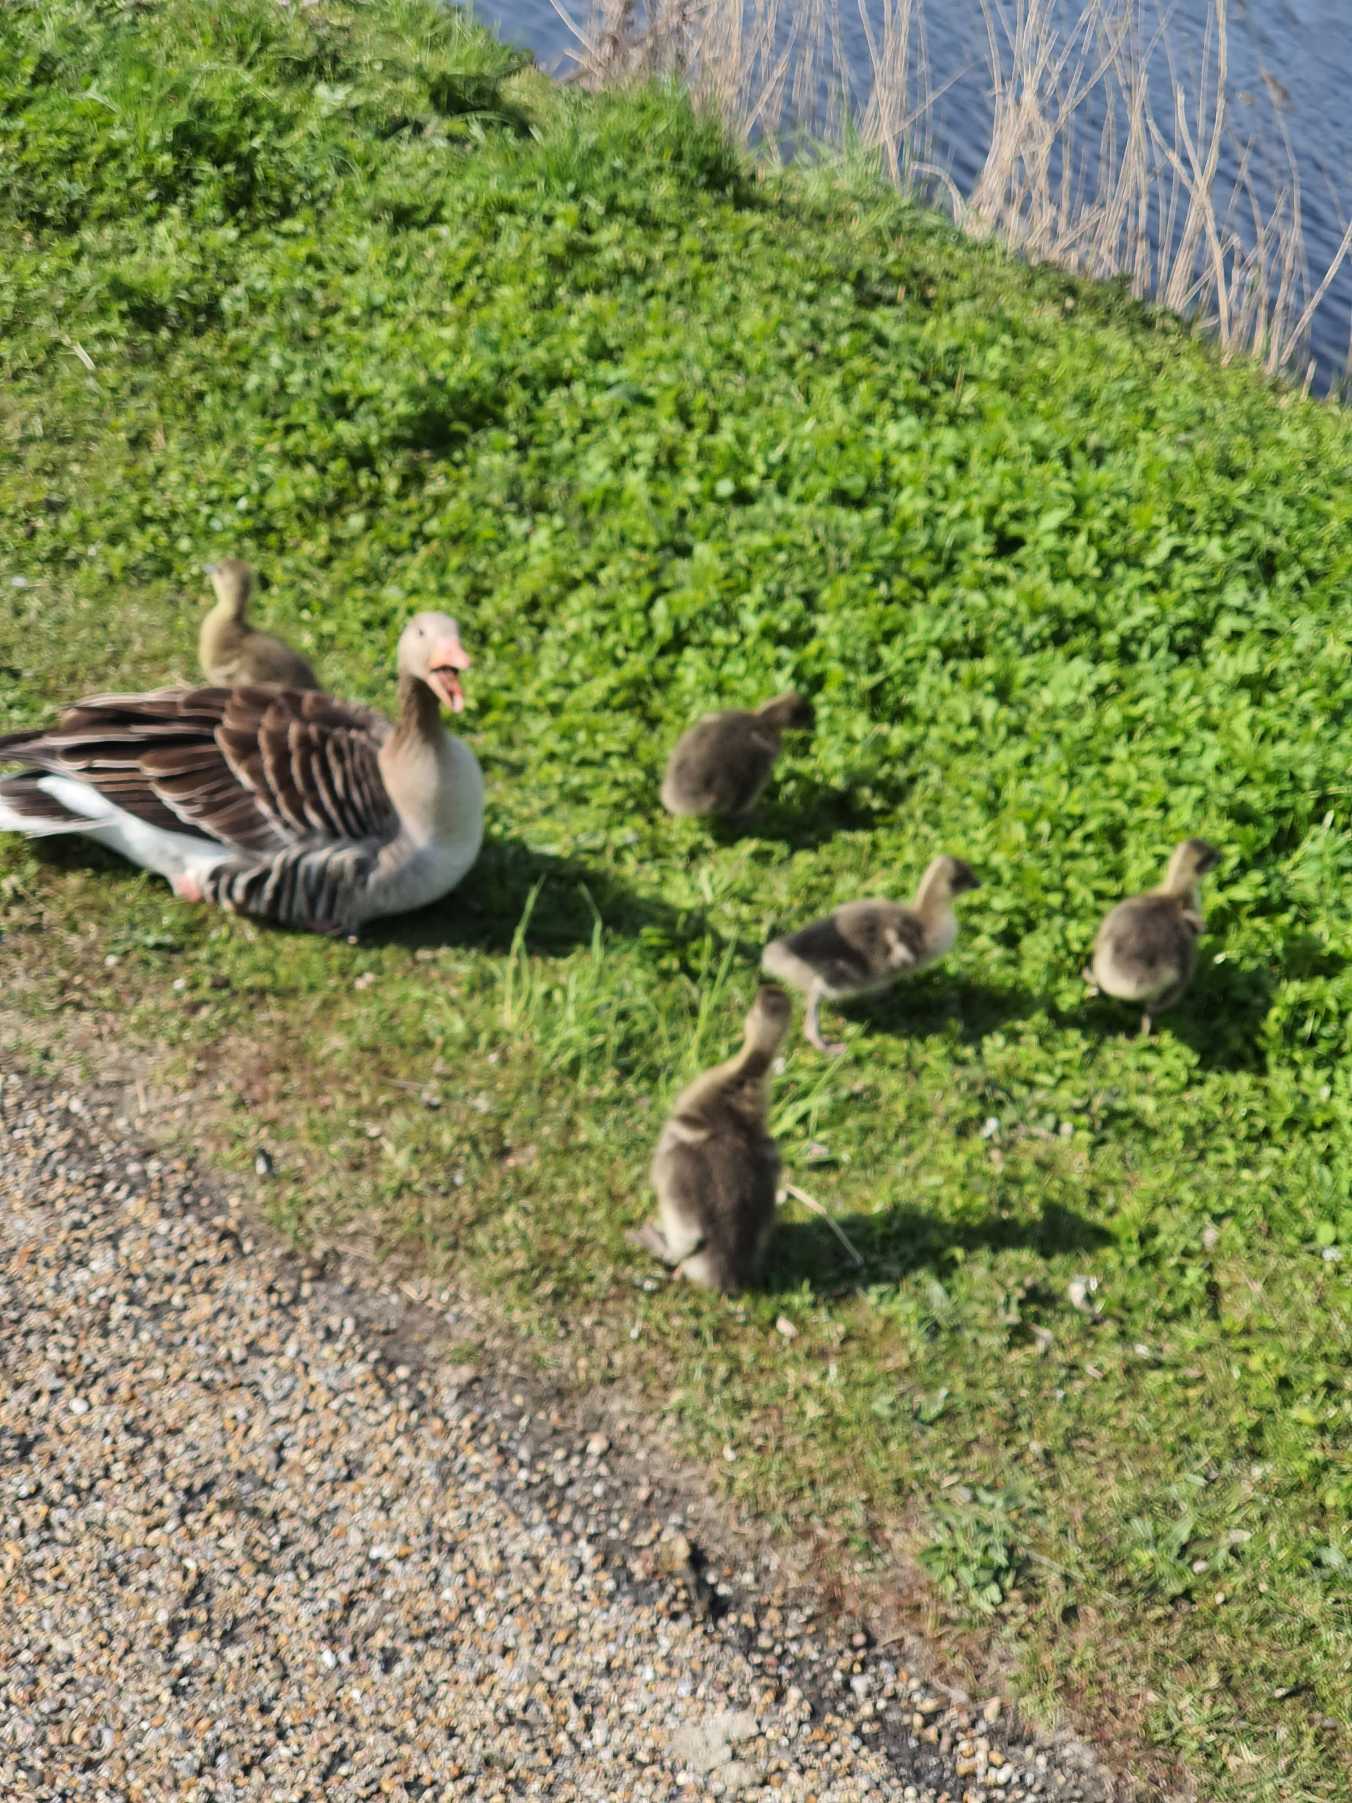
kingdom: Animalia
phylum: Chordata
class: Aves
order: Anseriformes
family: Anatidae
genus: Anser
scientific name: Anser anser
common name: Grågås
